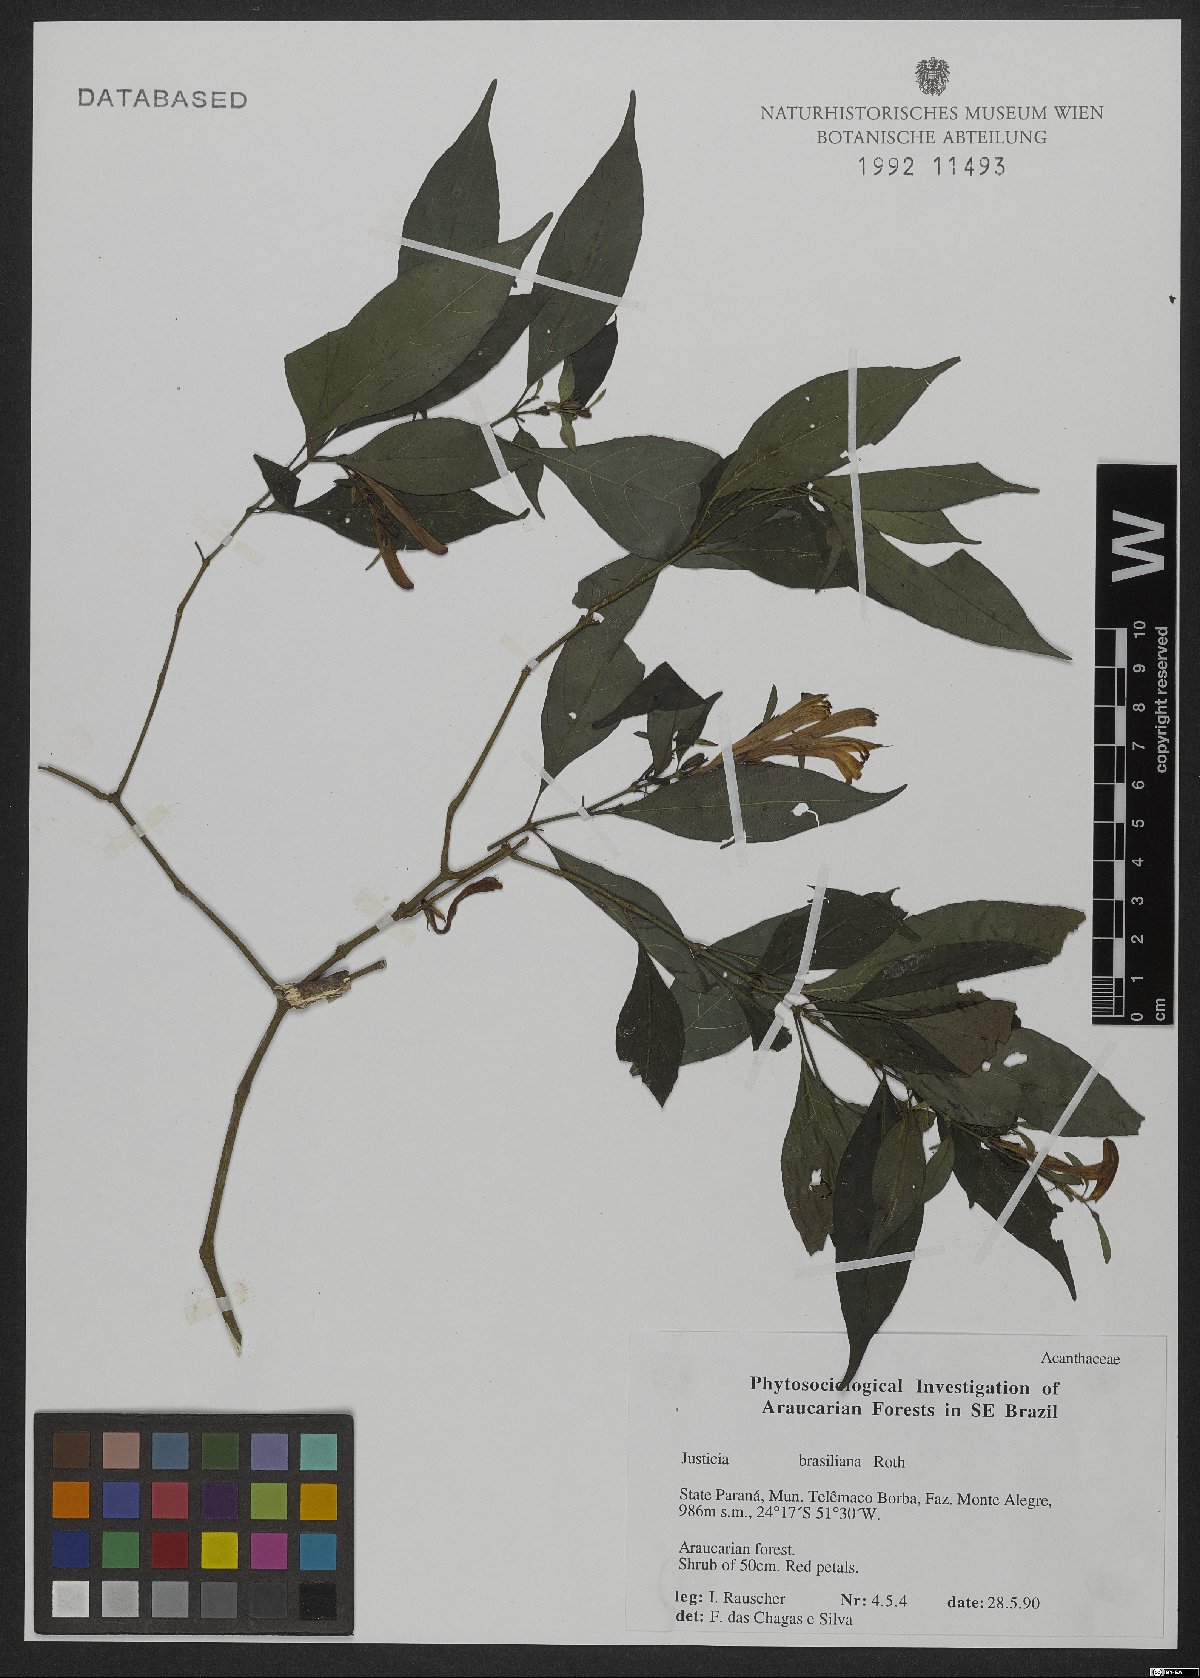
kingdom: Plantae
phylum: Tracheophyta
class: Magnoliopsida
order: Lamiales
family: Acanthaceae
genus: Justicia
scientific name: Justicia brasiliana
